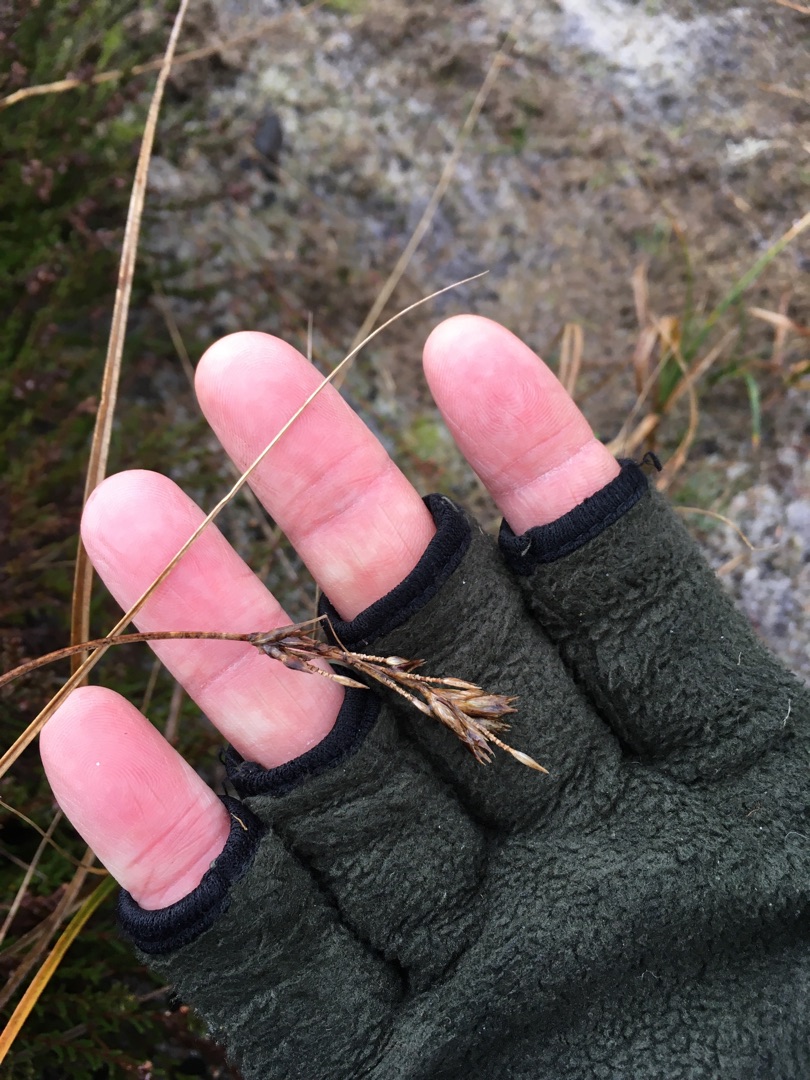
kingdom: Plantae
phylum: Tracheophyta
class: Liliopsida
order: Poales
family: Cyperaceae
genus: Carex
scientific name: Carex arenaria
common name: Sand-star
